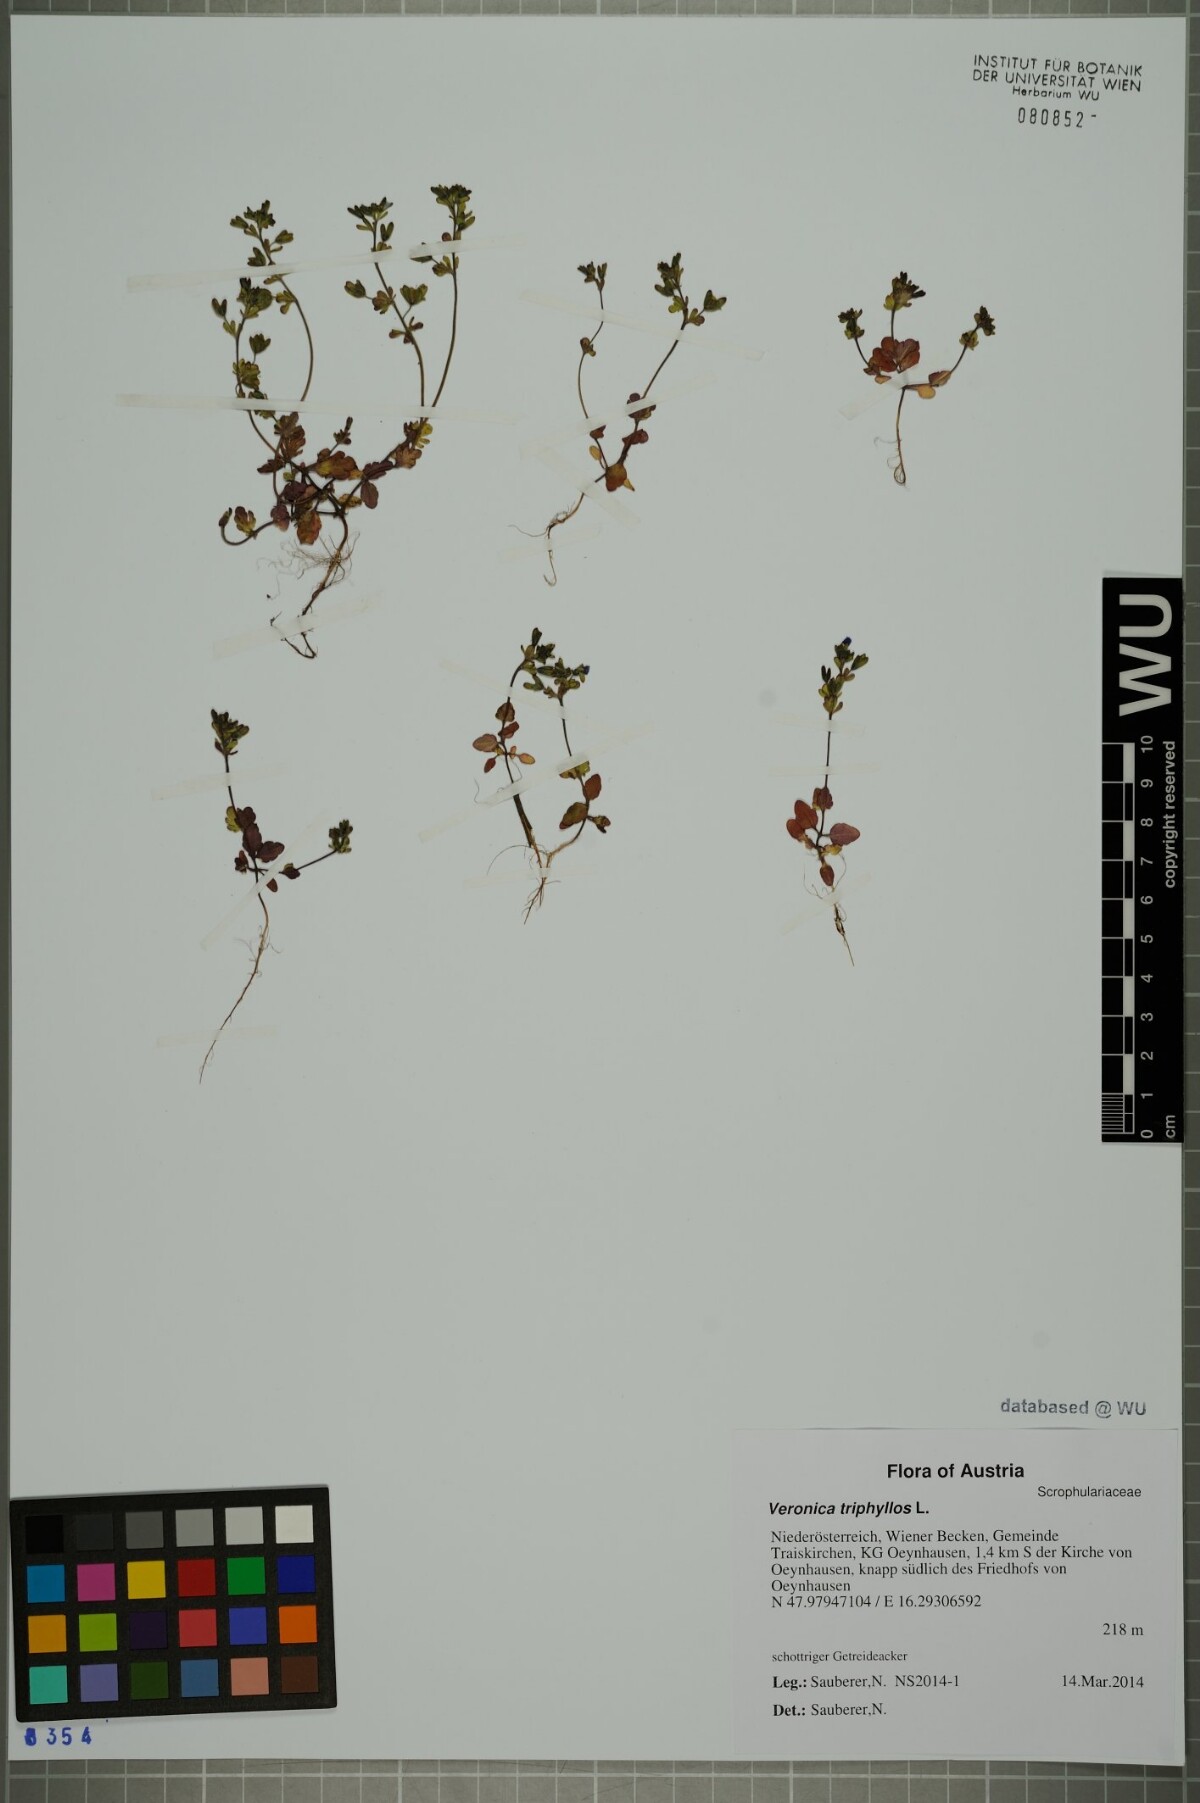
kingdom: Plantae
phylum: Tracheophyta
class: Magnoliopsida
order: Lamiales
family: Plantaginaceae
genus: Veronica
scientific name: Veronica triphyllos
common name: Fingered speedwell
